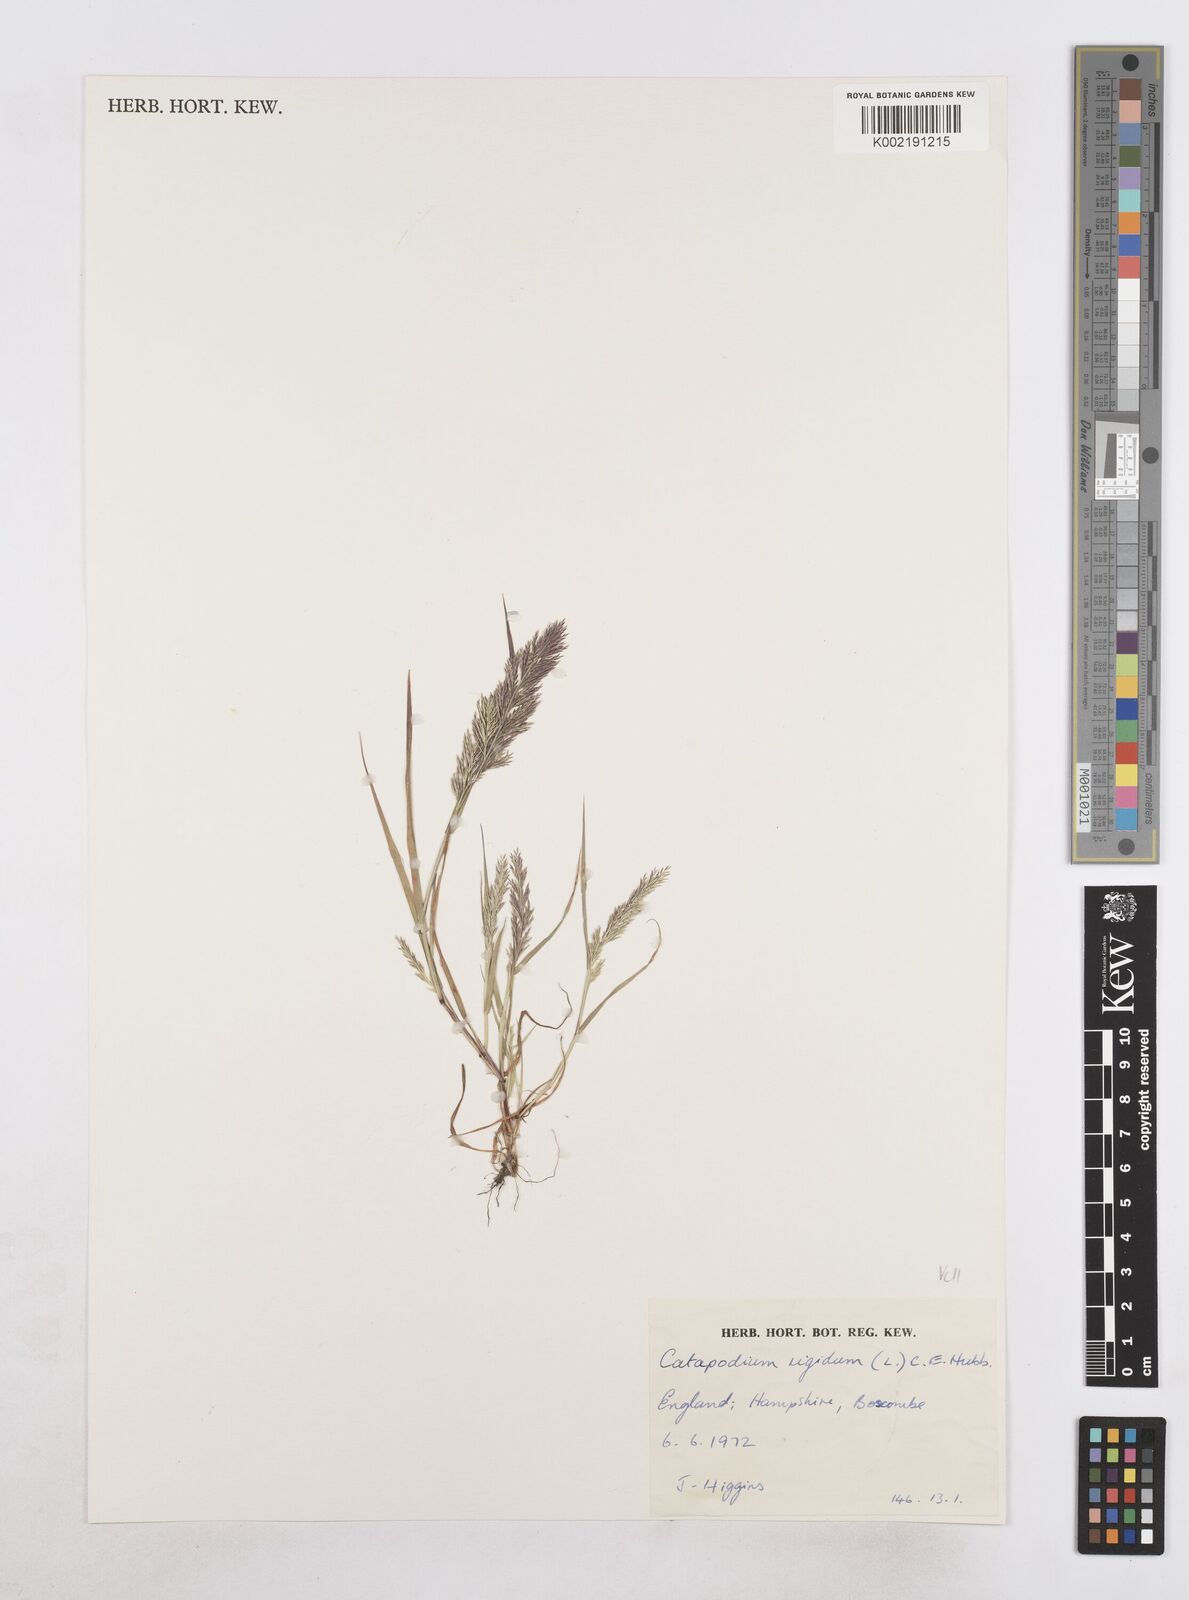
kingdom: Plantae
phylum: Tracheophyta
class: Liliopsida
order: Poales
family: Poaceae
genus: Catapodium
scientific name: Catapodium rigidum
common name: Fern-grass
